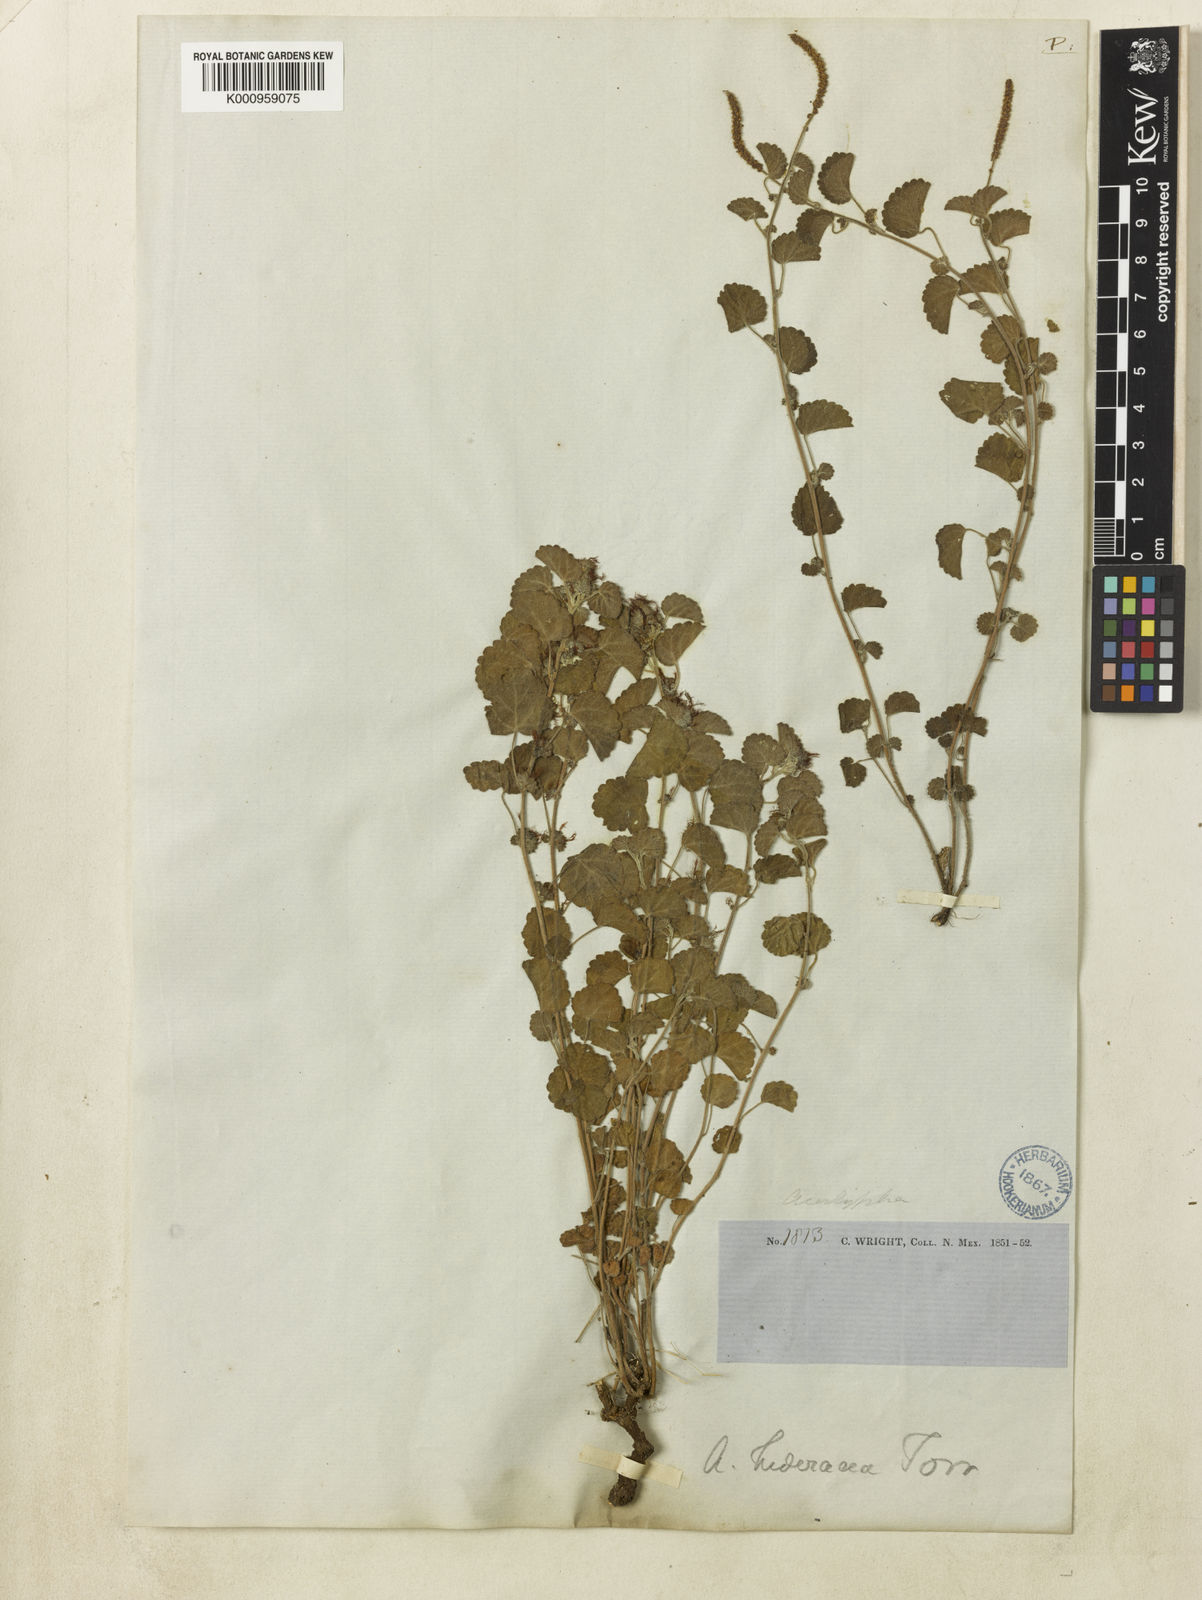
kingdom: Plantae
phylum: Tracheophyta
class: Magnoliopsida
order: Malpighiales
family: Euphorbiaceae
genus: Acalypha
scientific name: Acalypha monostachya
